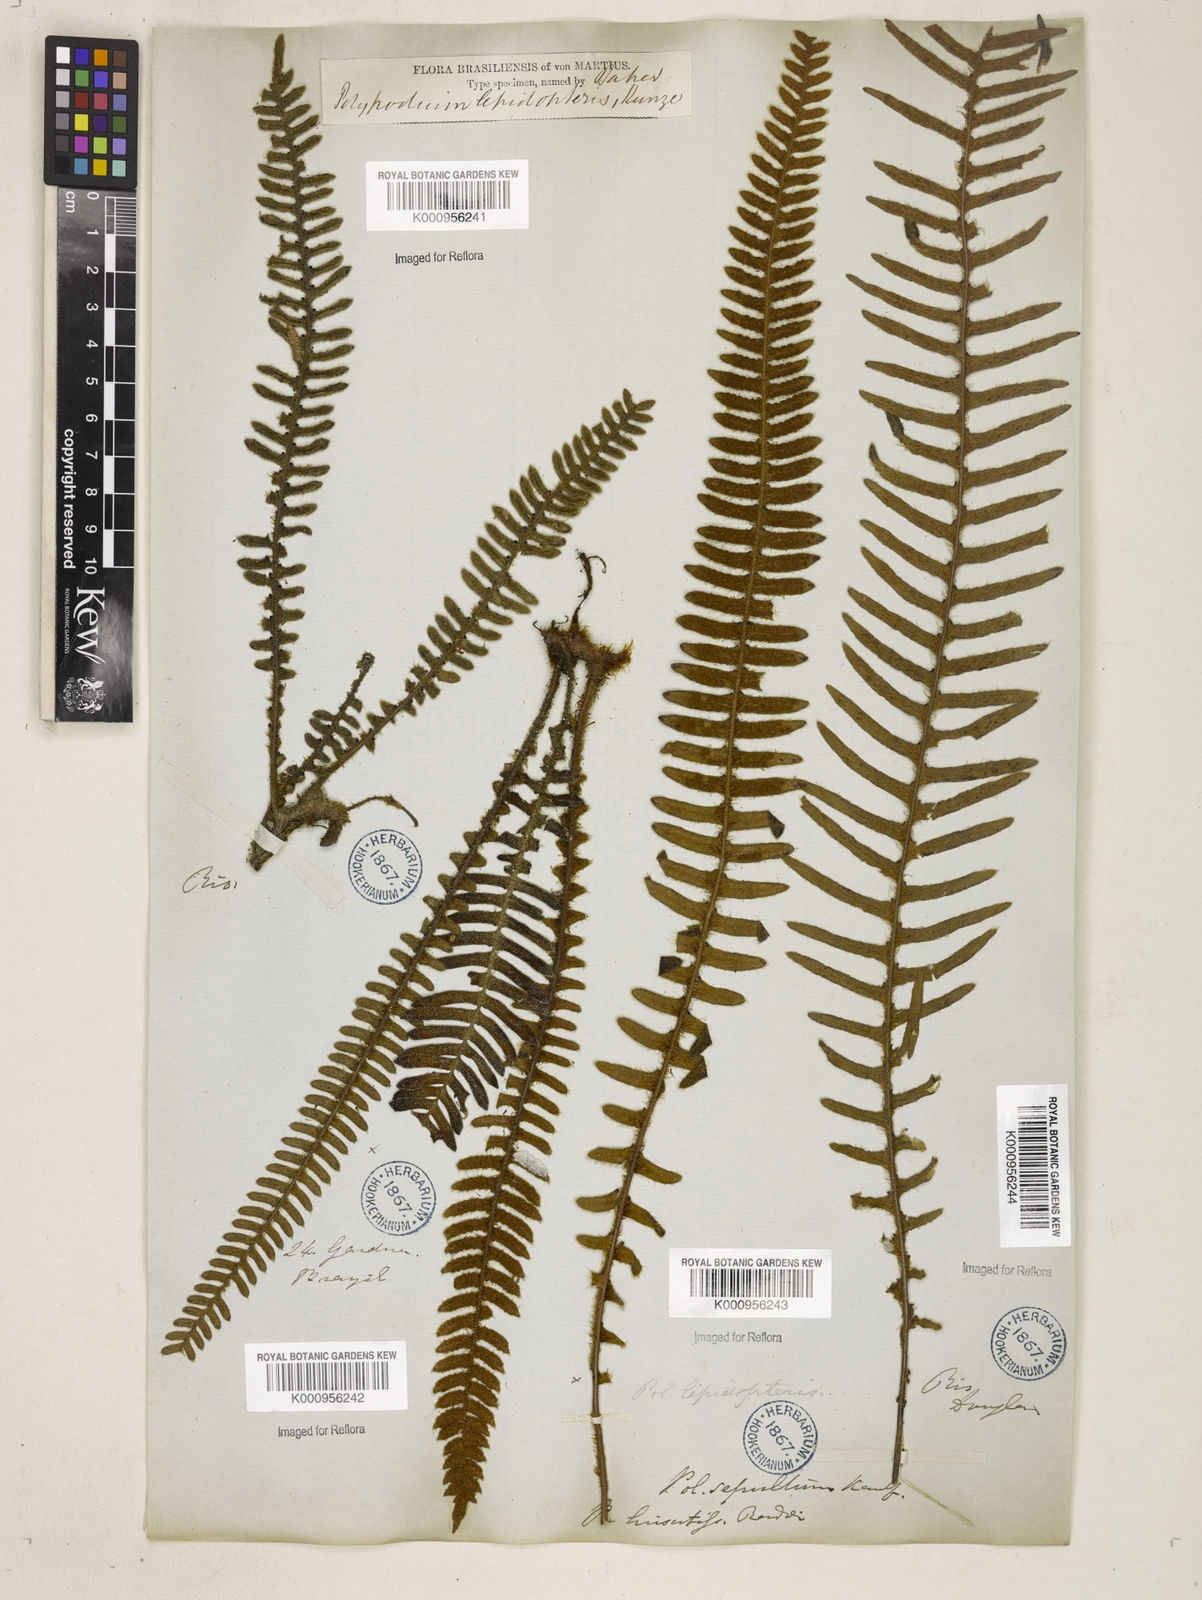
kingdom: Plantae
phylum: Tracheophyta
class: Polypodiopsida
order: Polypodiales
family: Polypodiaceae
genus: Pleopeltis
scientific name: Pleopeltis hirsutissima
